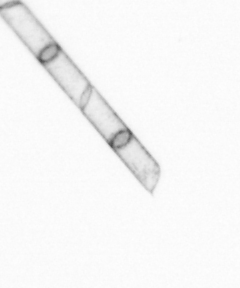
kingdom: Chromista
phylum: Ochrophyta
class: Bacillariophyceae
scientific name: Bacillariophyceae
